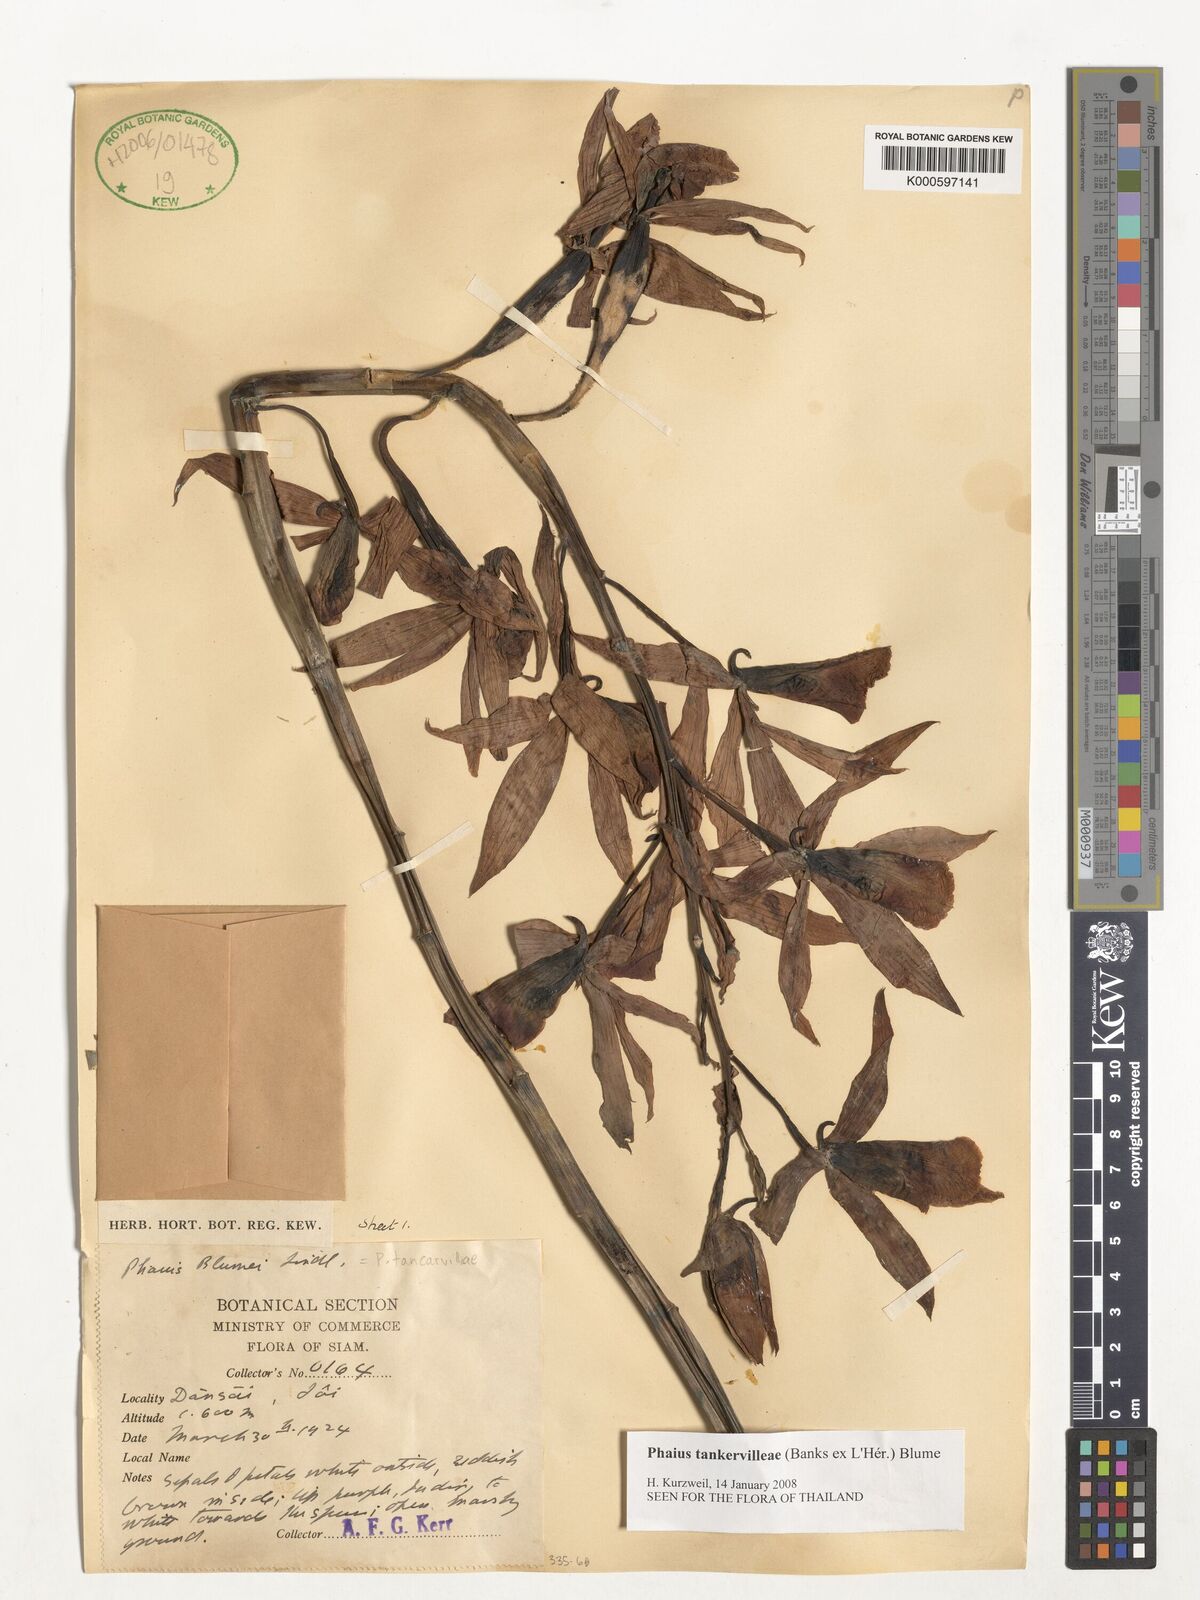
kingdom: Plantae
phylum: Tracheophyta
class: Liliopsida
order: Asparagales
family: Orchidaceae
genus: Calanthe
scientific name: Calanthe
